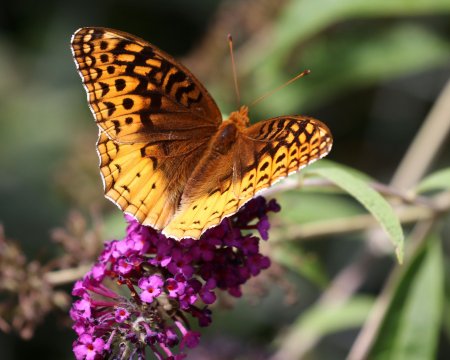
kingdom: Animalia
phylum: Arthropoda
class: Insecta
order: Lepidoptera
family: Nymphalidae
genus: Speyeria
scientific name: Speyeria cybele
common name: Great Spangled Fritillary
